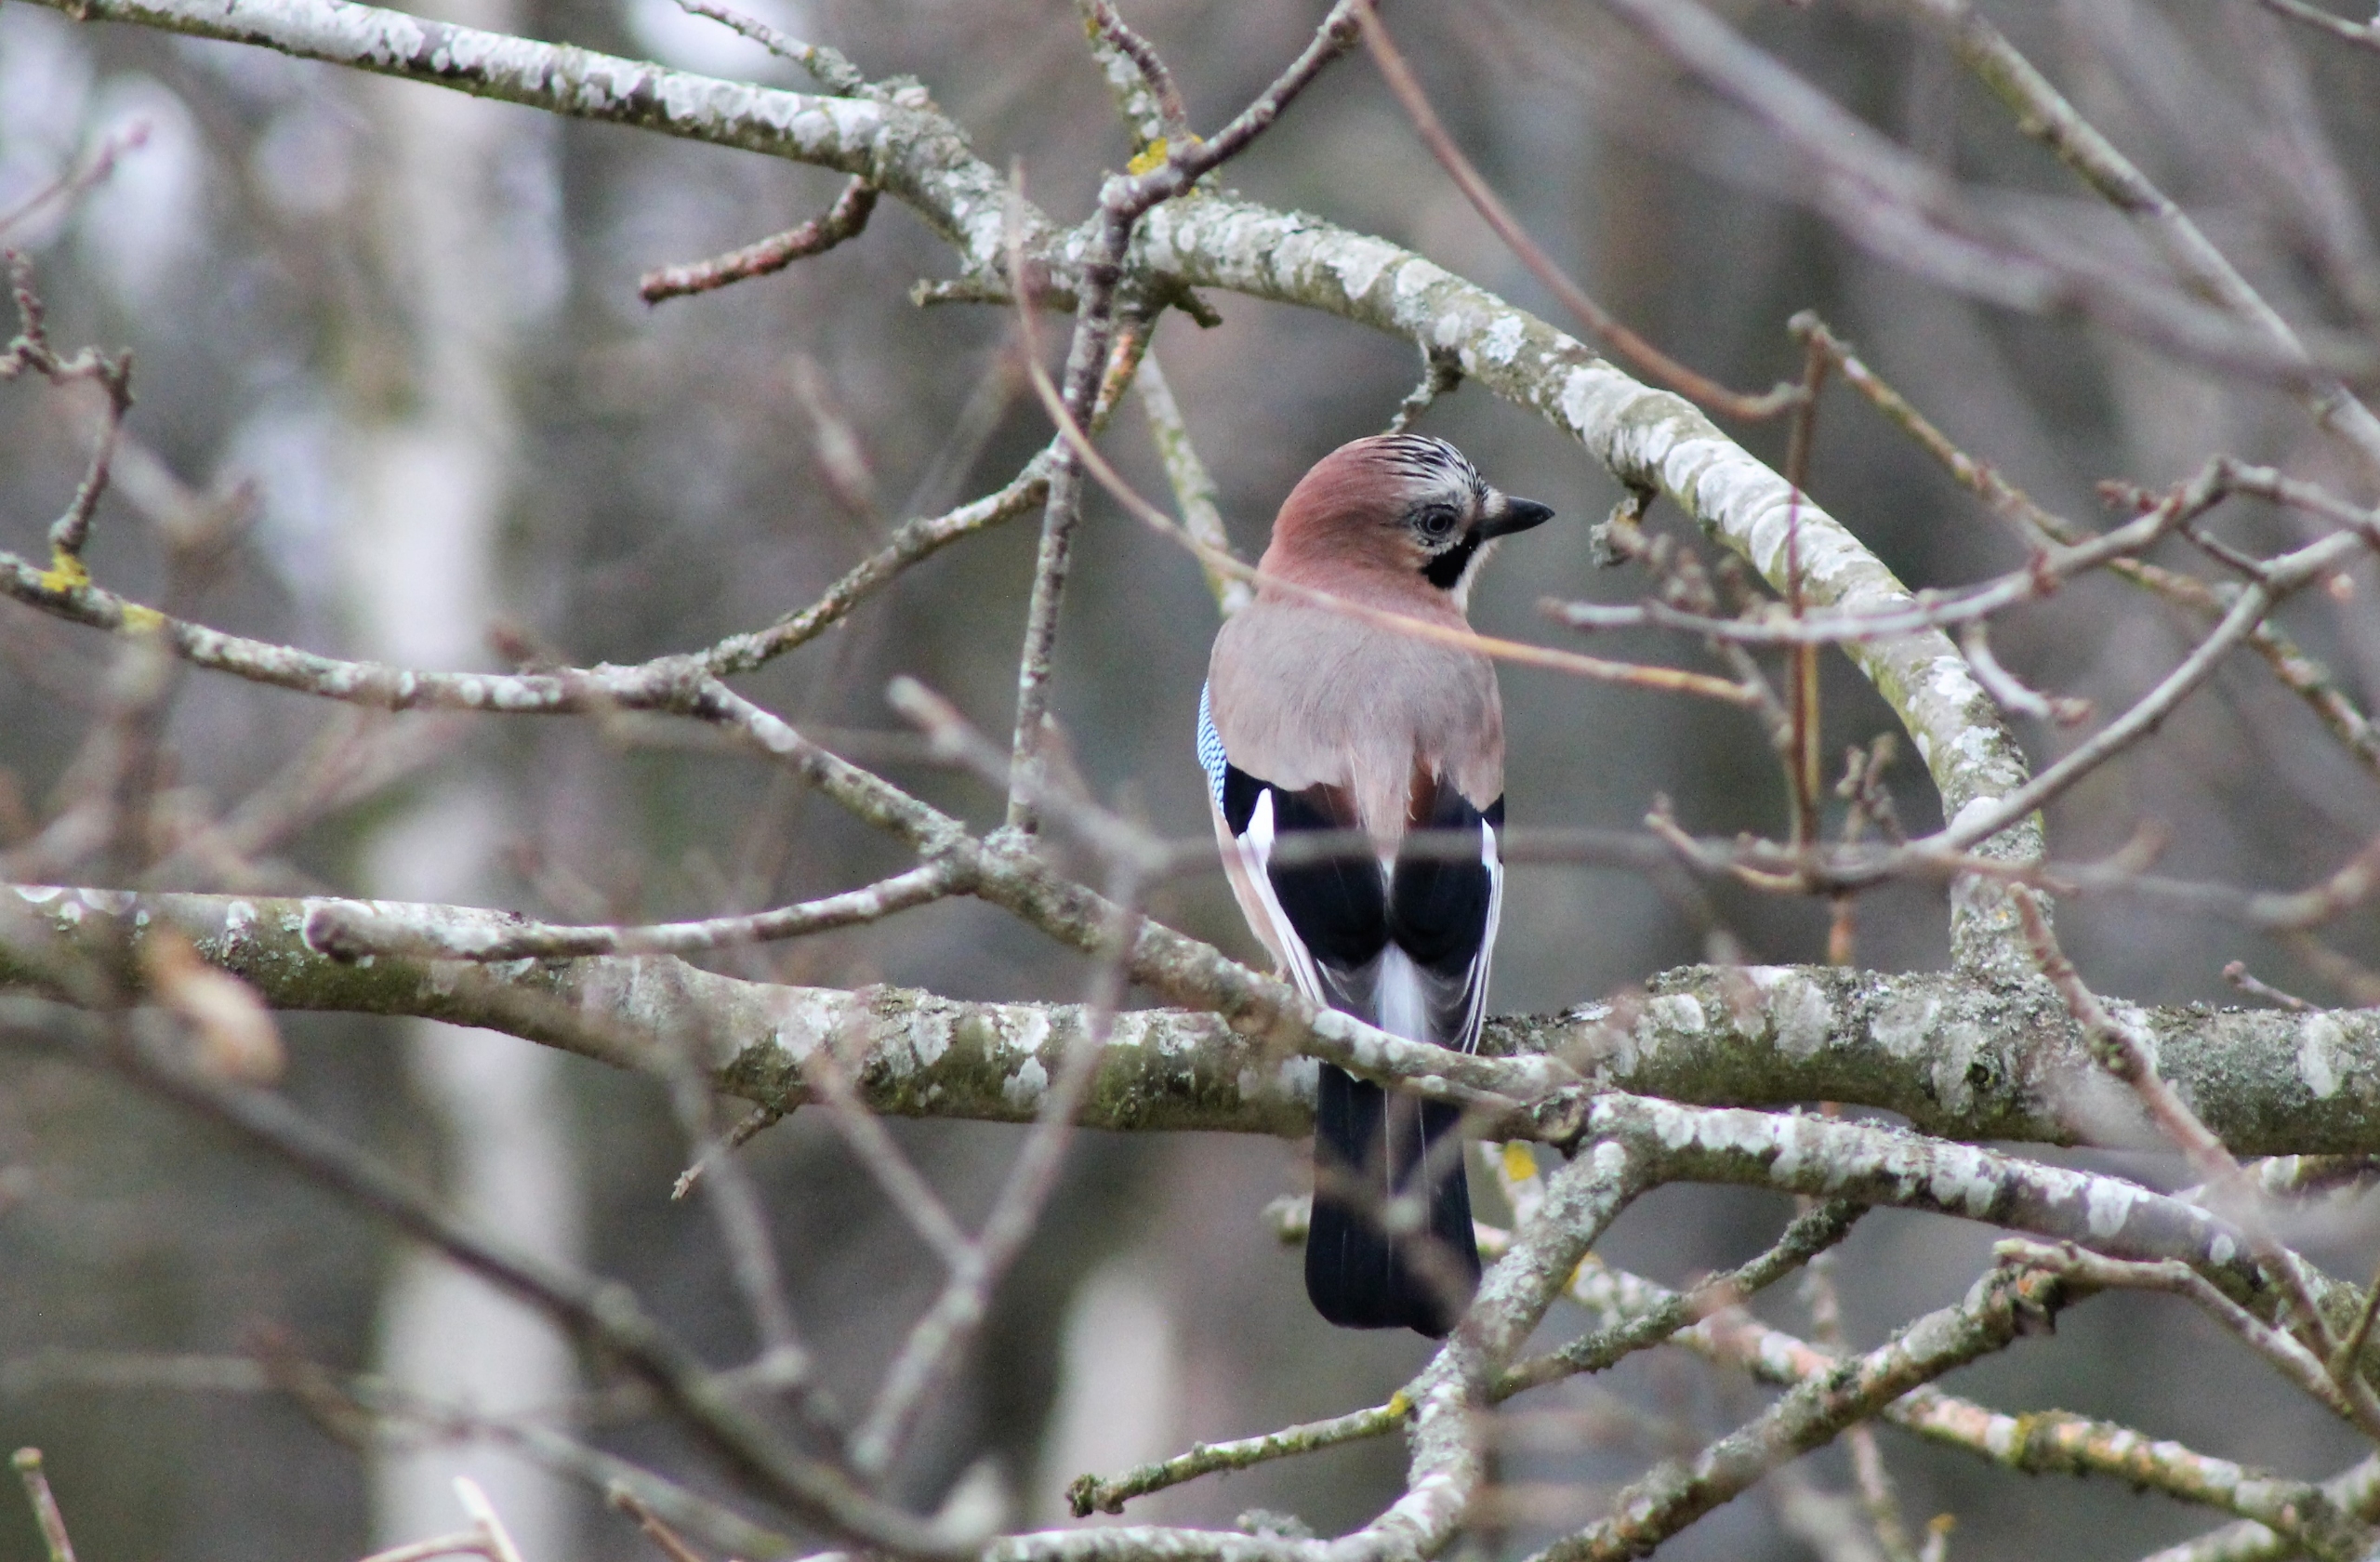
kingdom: Animalia
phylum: Chordata
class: Aves
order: Passeriformes
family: Corvidae
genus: Garrulus
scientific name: Garrulus glandarius
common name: Skovskade
